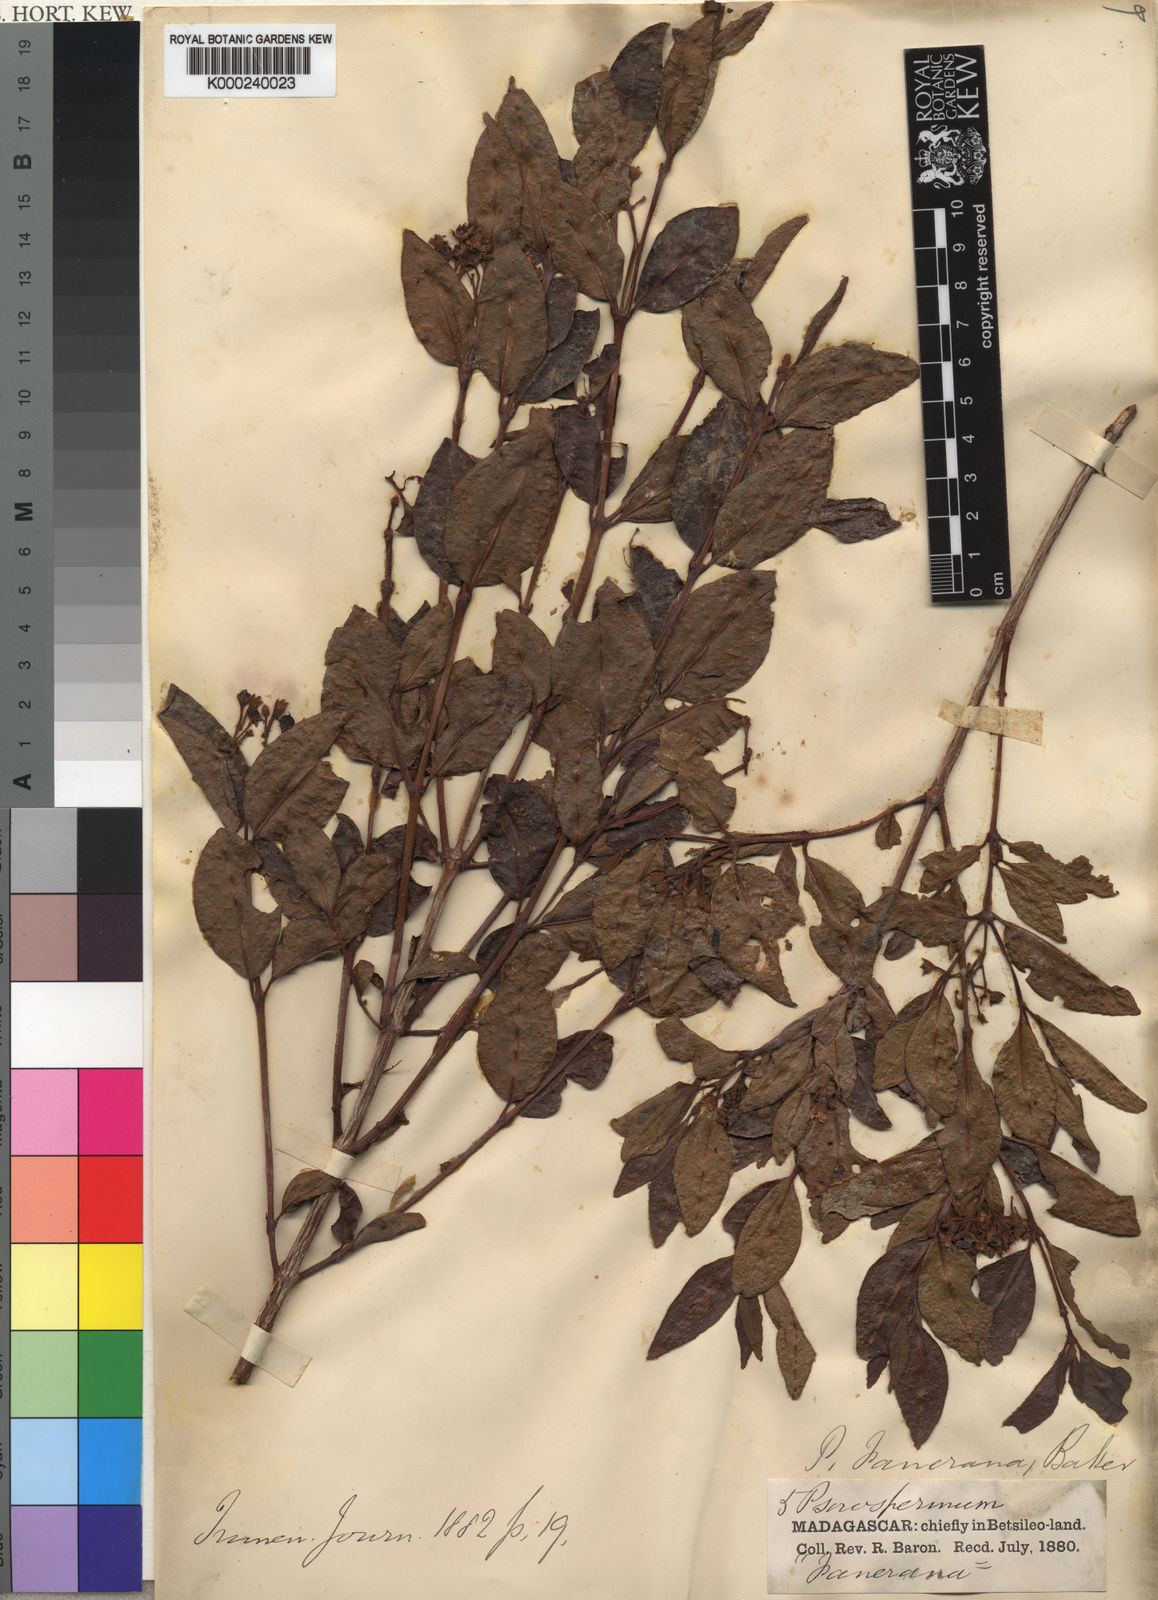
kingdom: Plantae
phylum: Tracheophyta
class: Magnoliopsida
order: Malpighiales
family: Hypericaceae
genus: Psorospermum
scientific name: Psorospermum fanerana
